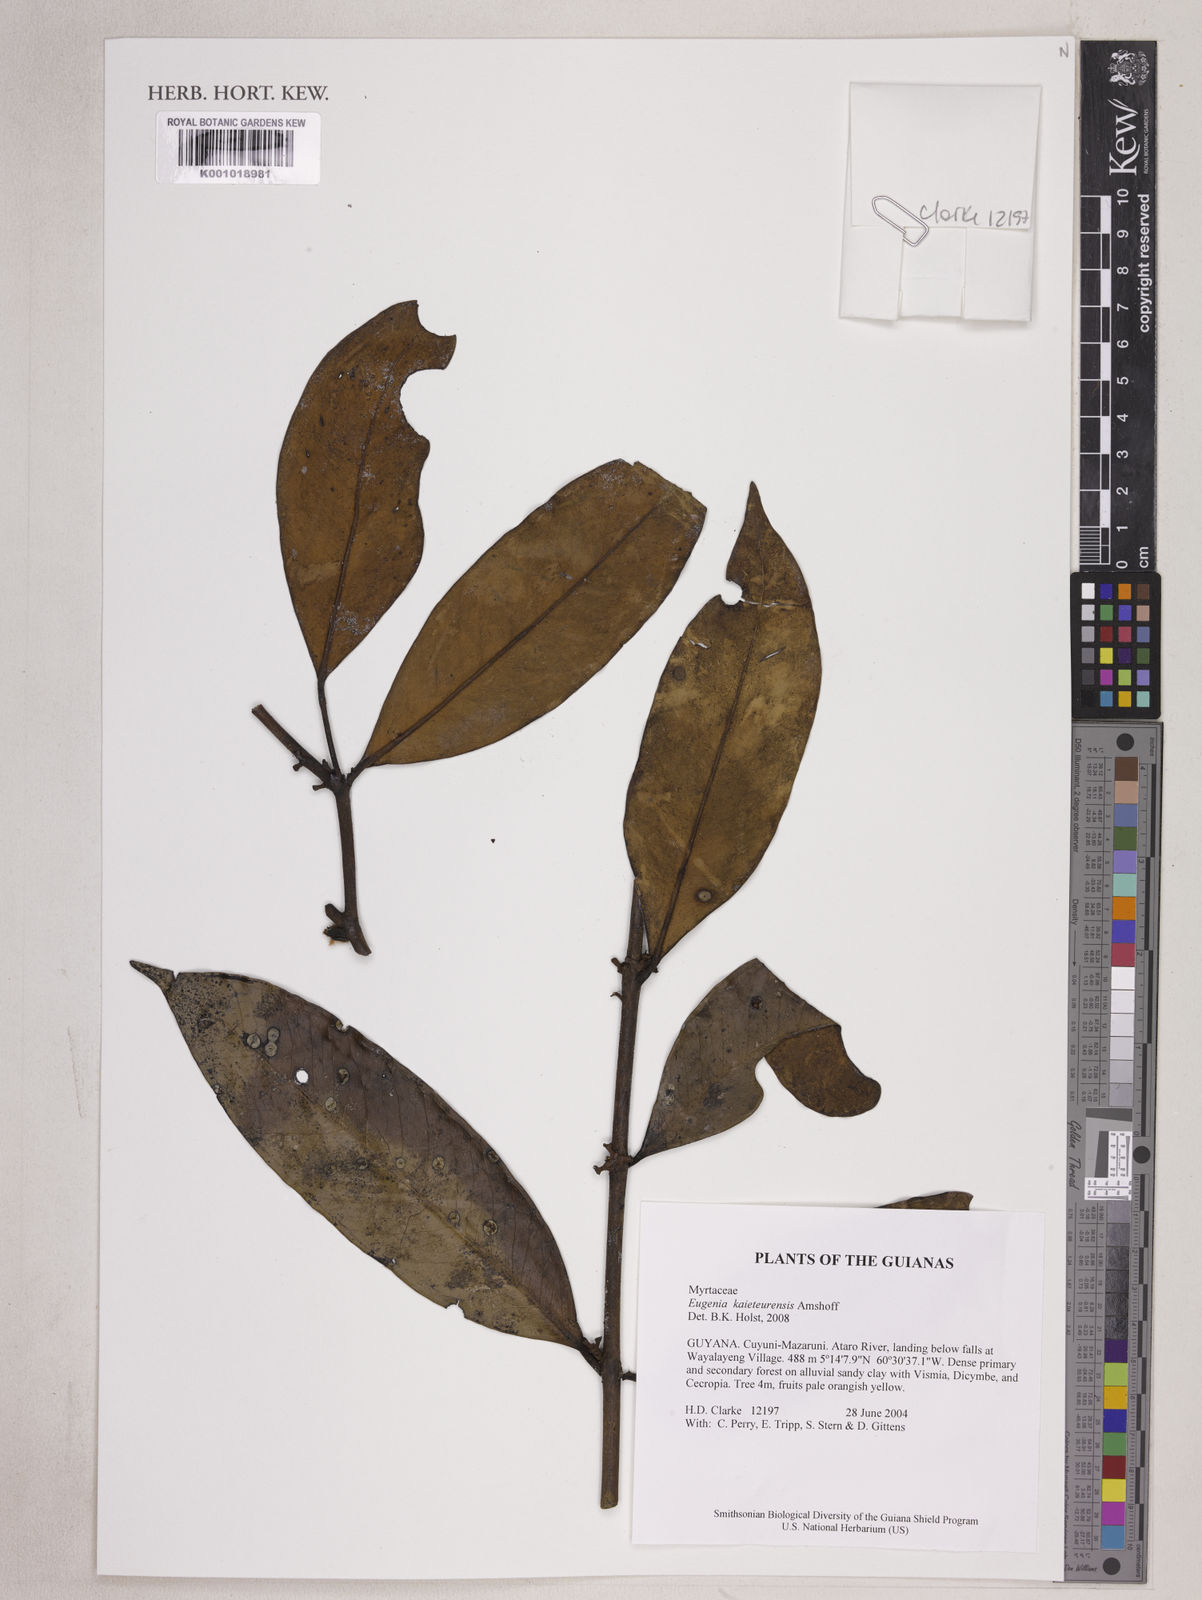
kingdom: Plantae
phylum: Tracheophyta
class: Magnoliopsida
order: Myrtales
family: Myrtaceae
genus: Eugenia
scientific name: Eugenia kaieteurensis
